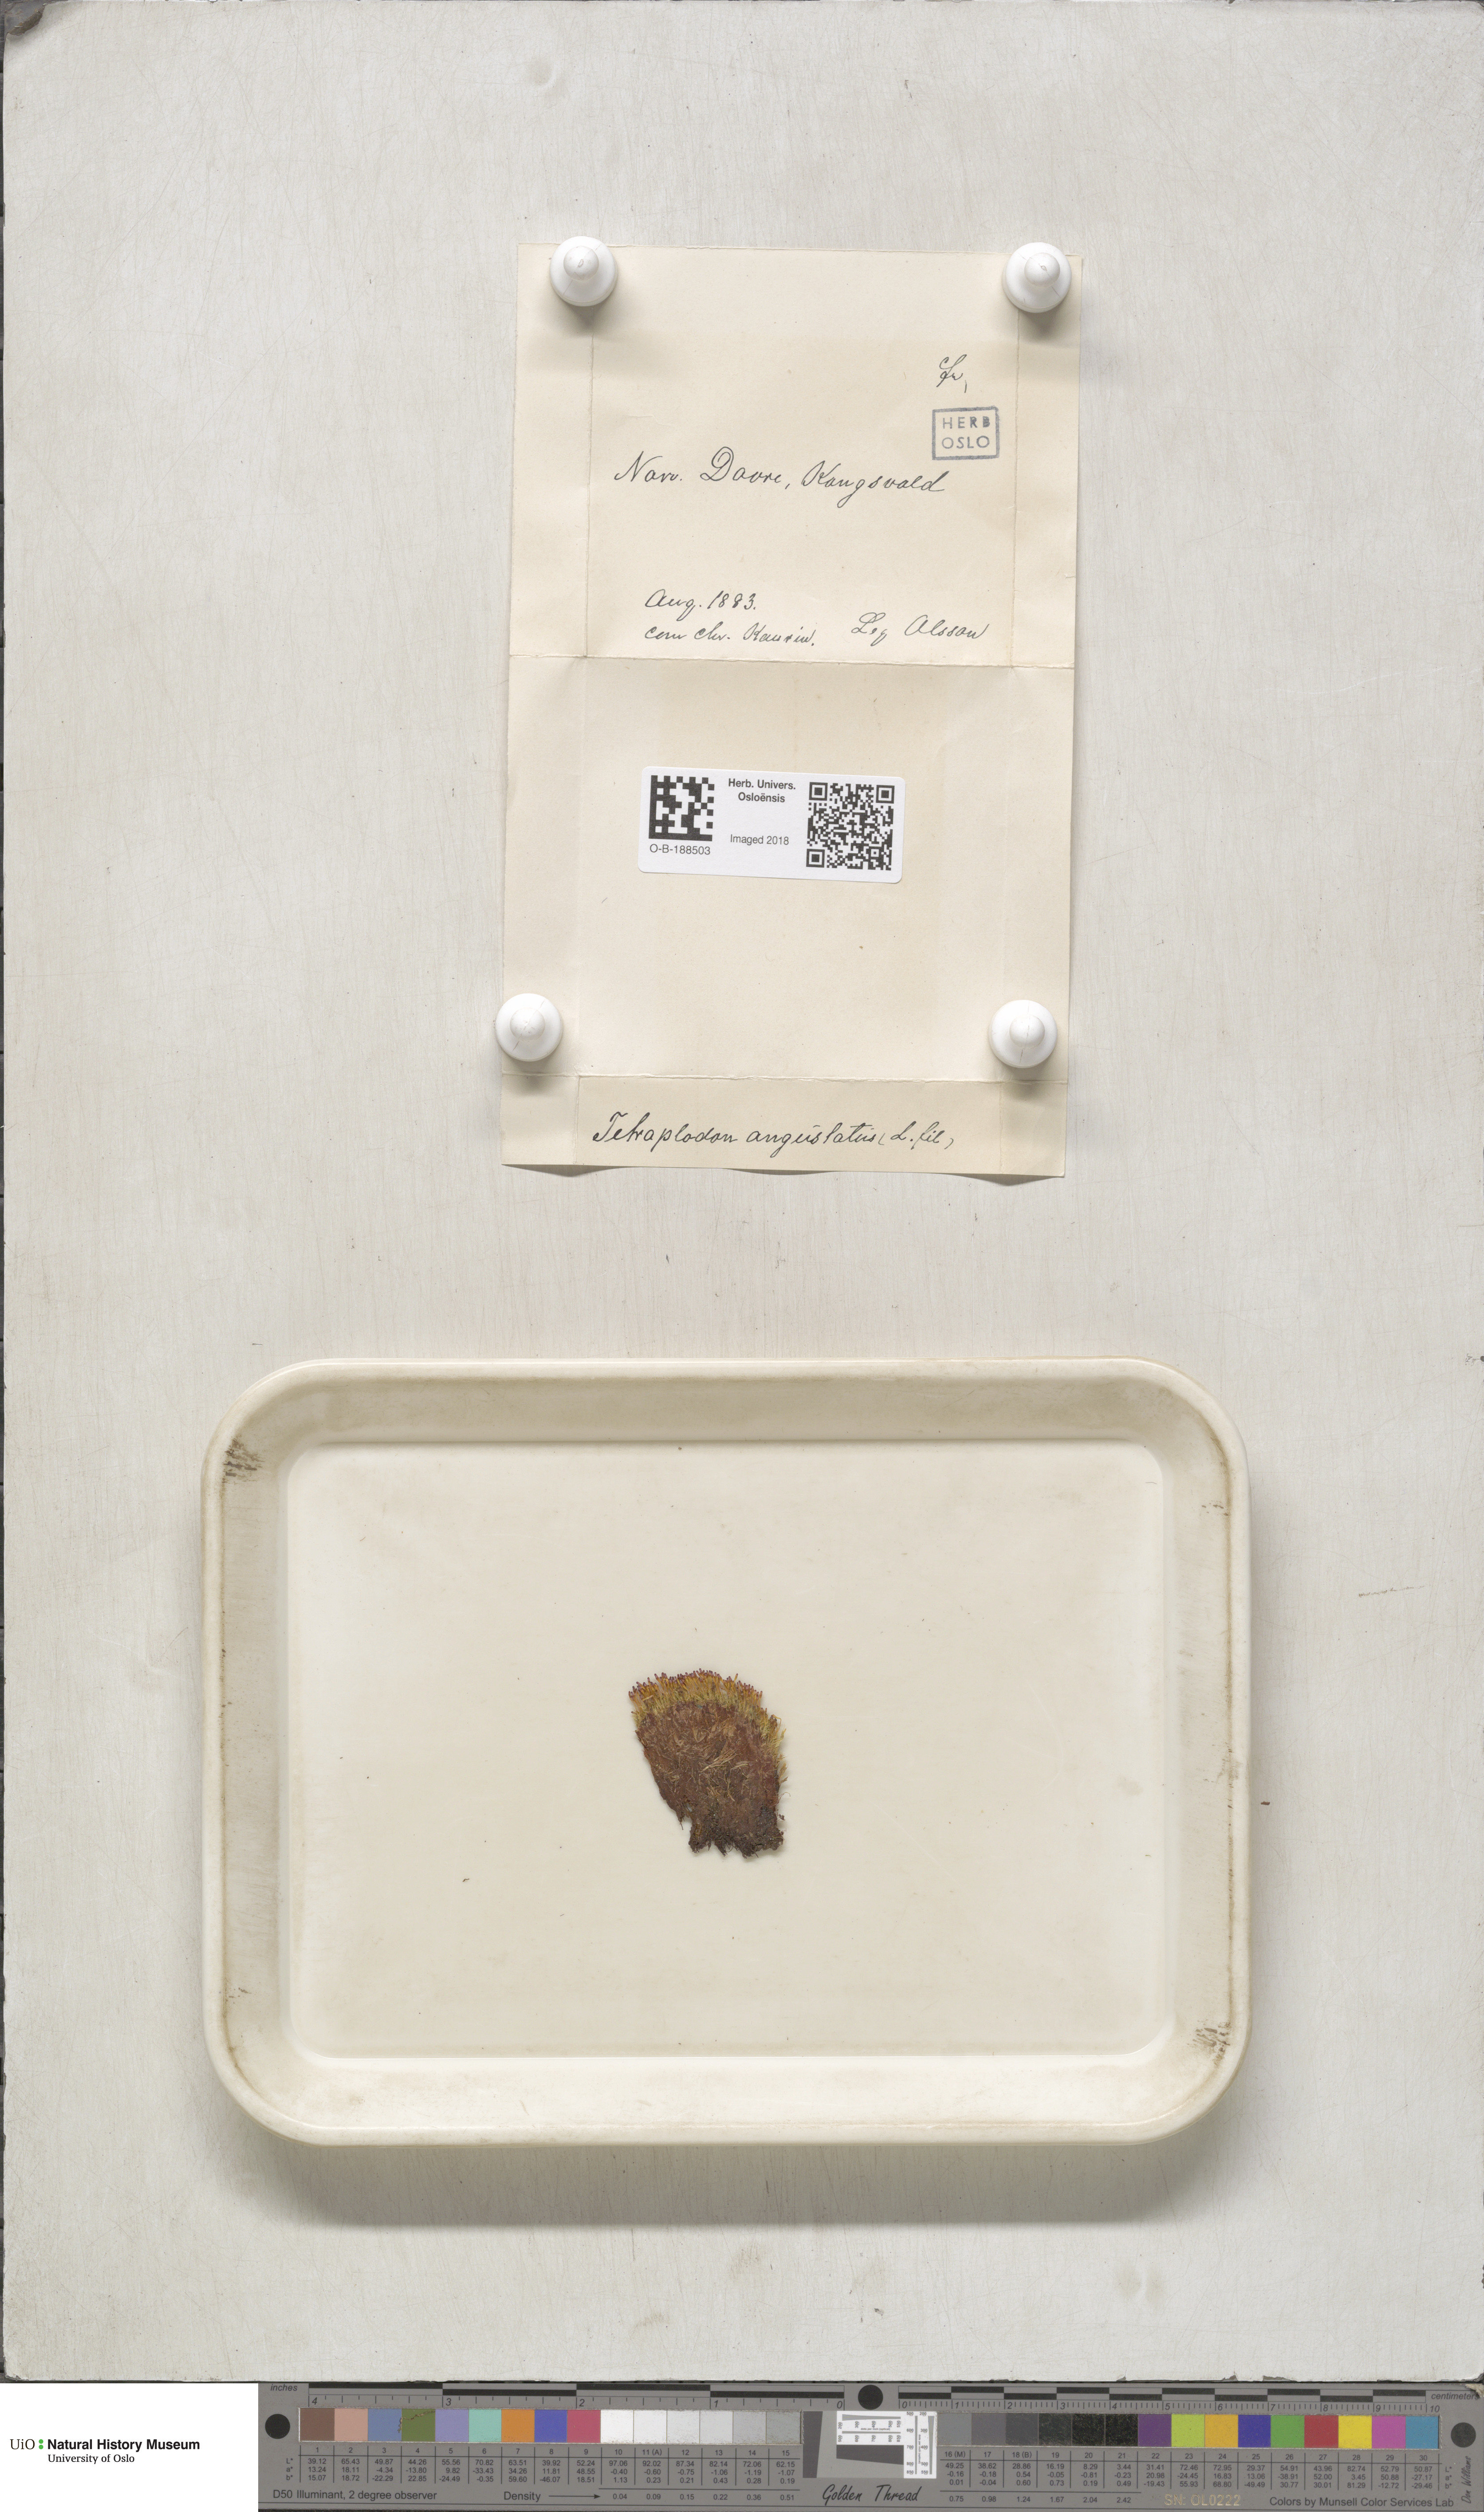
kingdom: Plantae
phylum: Bryophyta
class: Bryopsida
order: Splachnales
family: Splachnaceae
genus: Tetraplodon
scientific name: Tetraplodon angustatus
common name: Narrow cruet-moss
